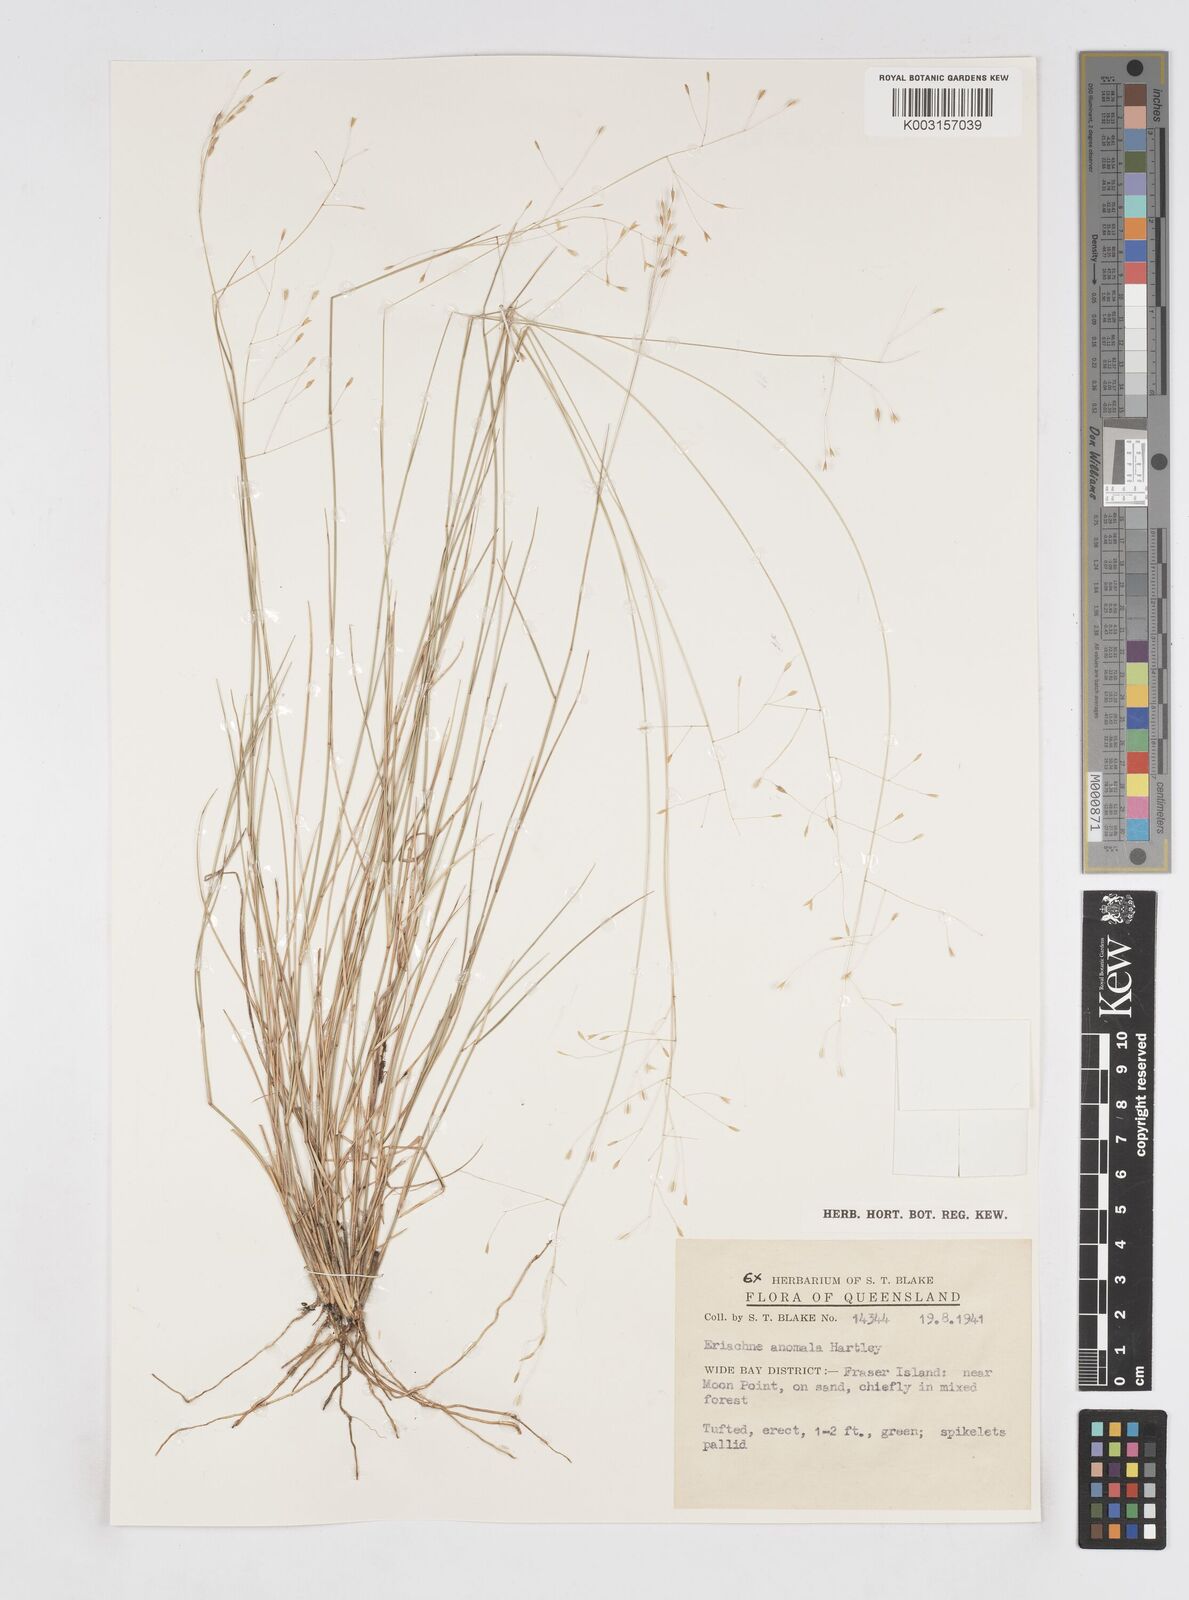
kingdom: Plantae
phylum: Tracheophyta
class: Liliopsida
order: Poales
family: Poaceae
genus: Eriachne
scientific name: Eriachne pallescens
